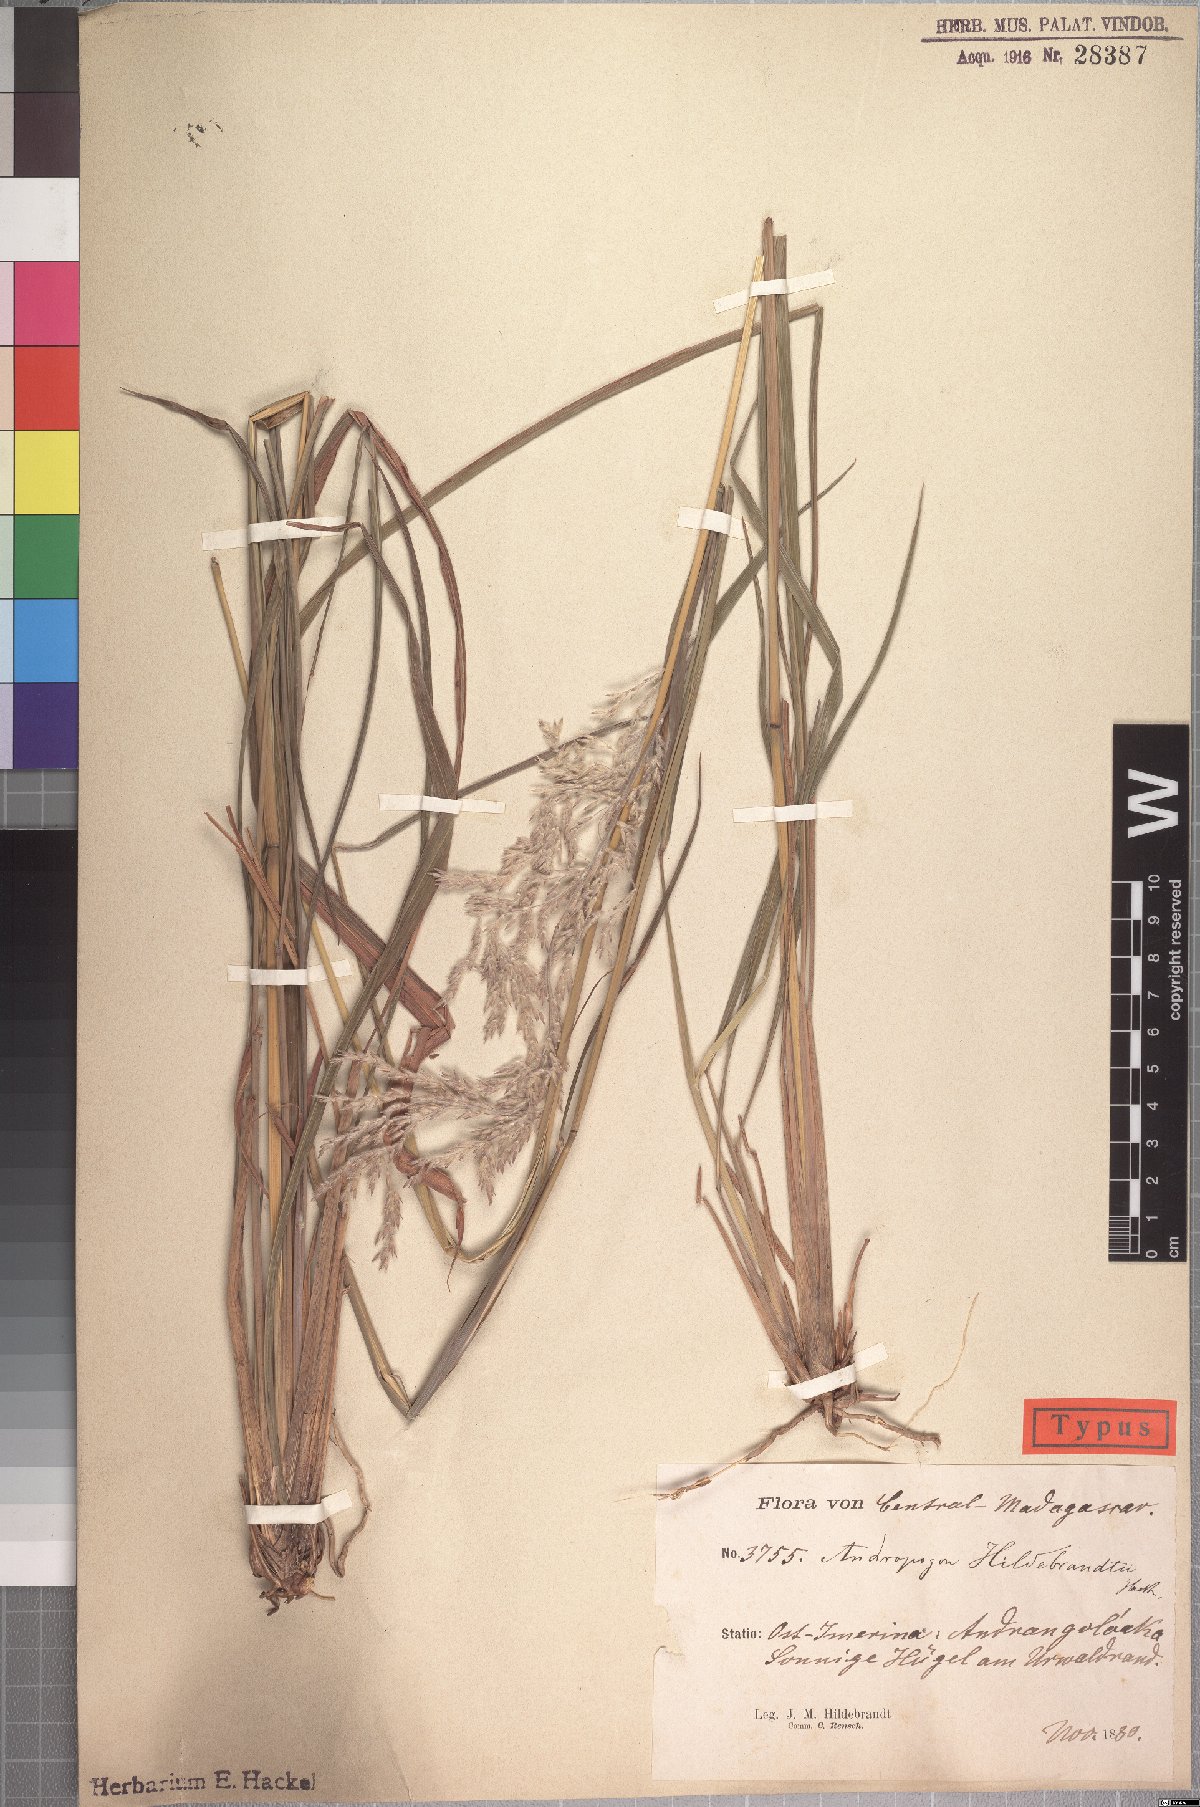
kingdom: Plantae
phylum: Tracheophyta
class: Liliopsida
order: Poales
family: Poaceae
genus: Lasiorhachis
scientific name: Lasiorhachis hildebrandtii
